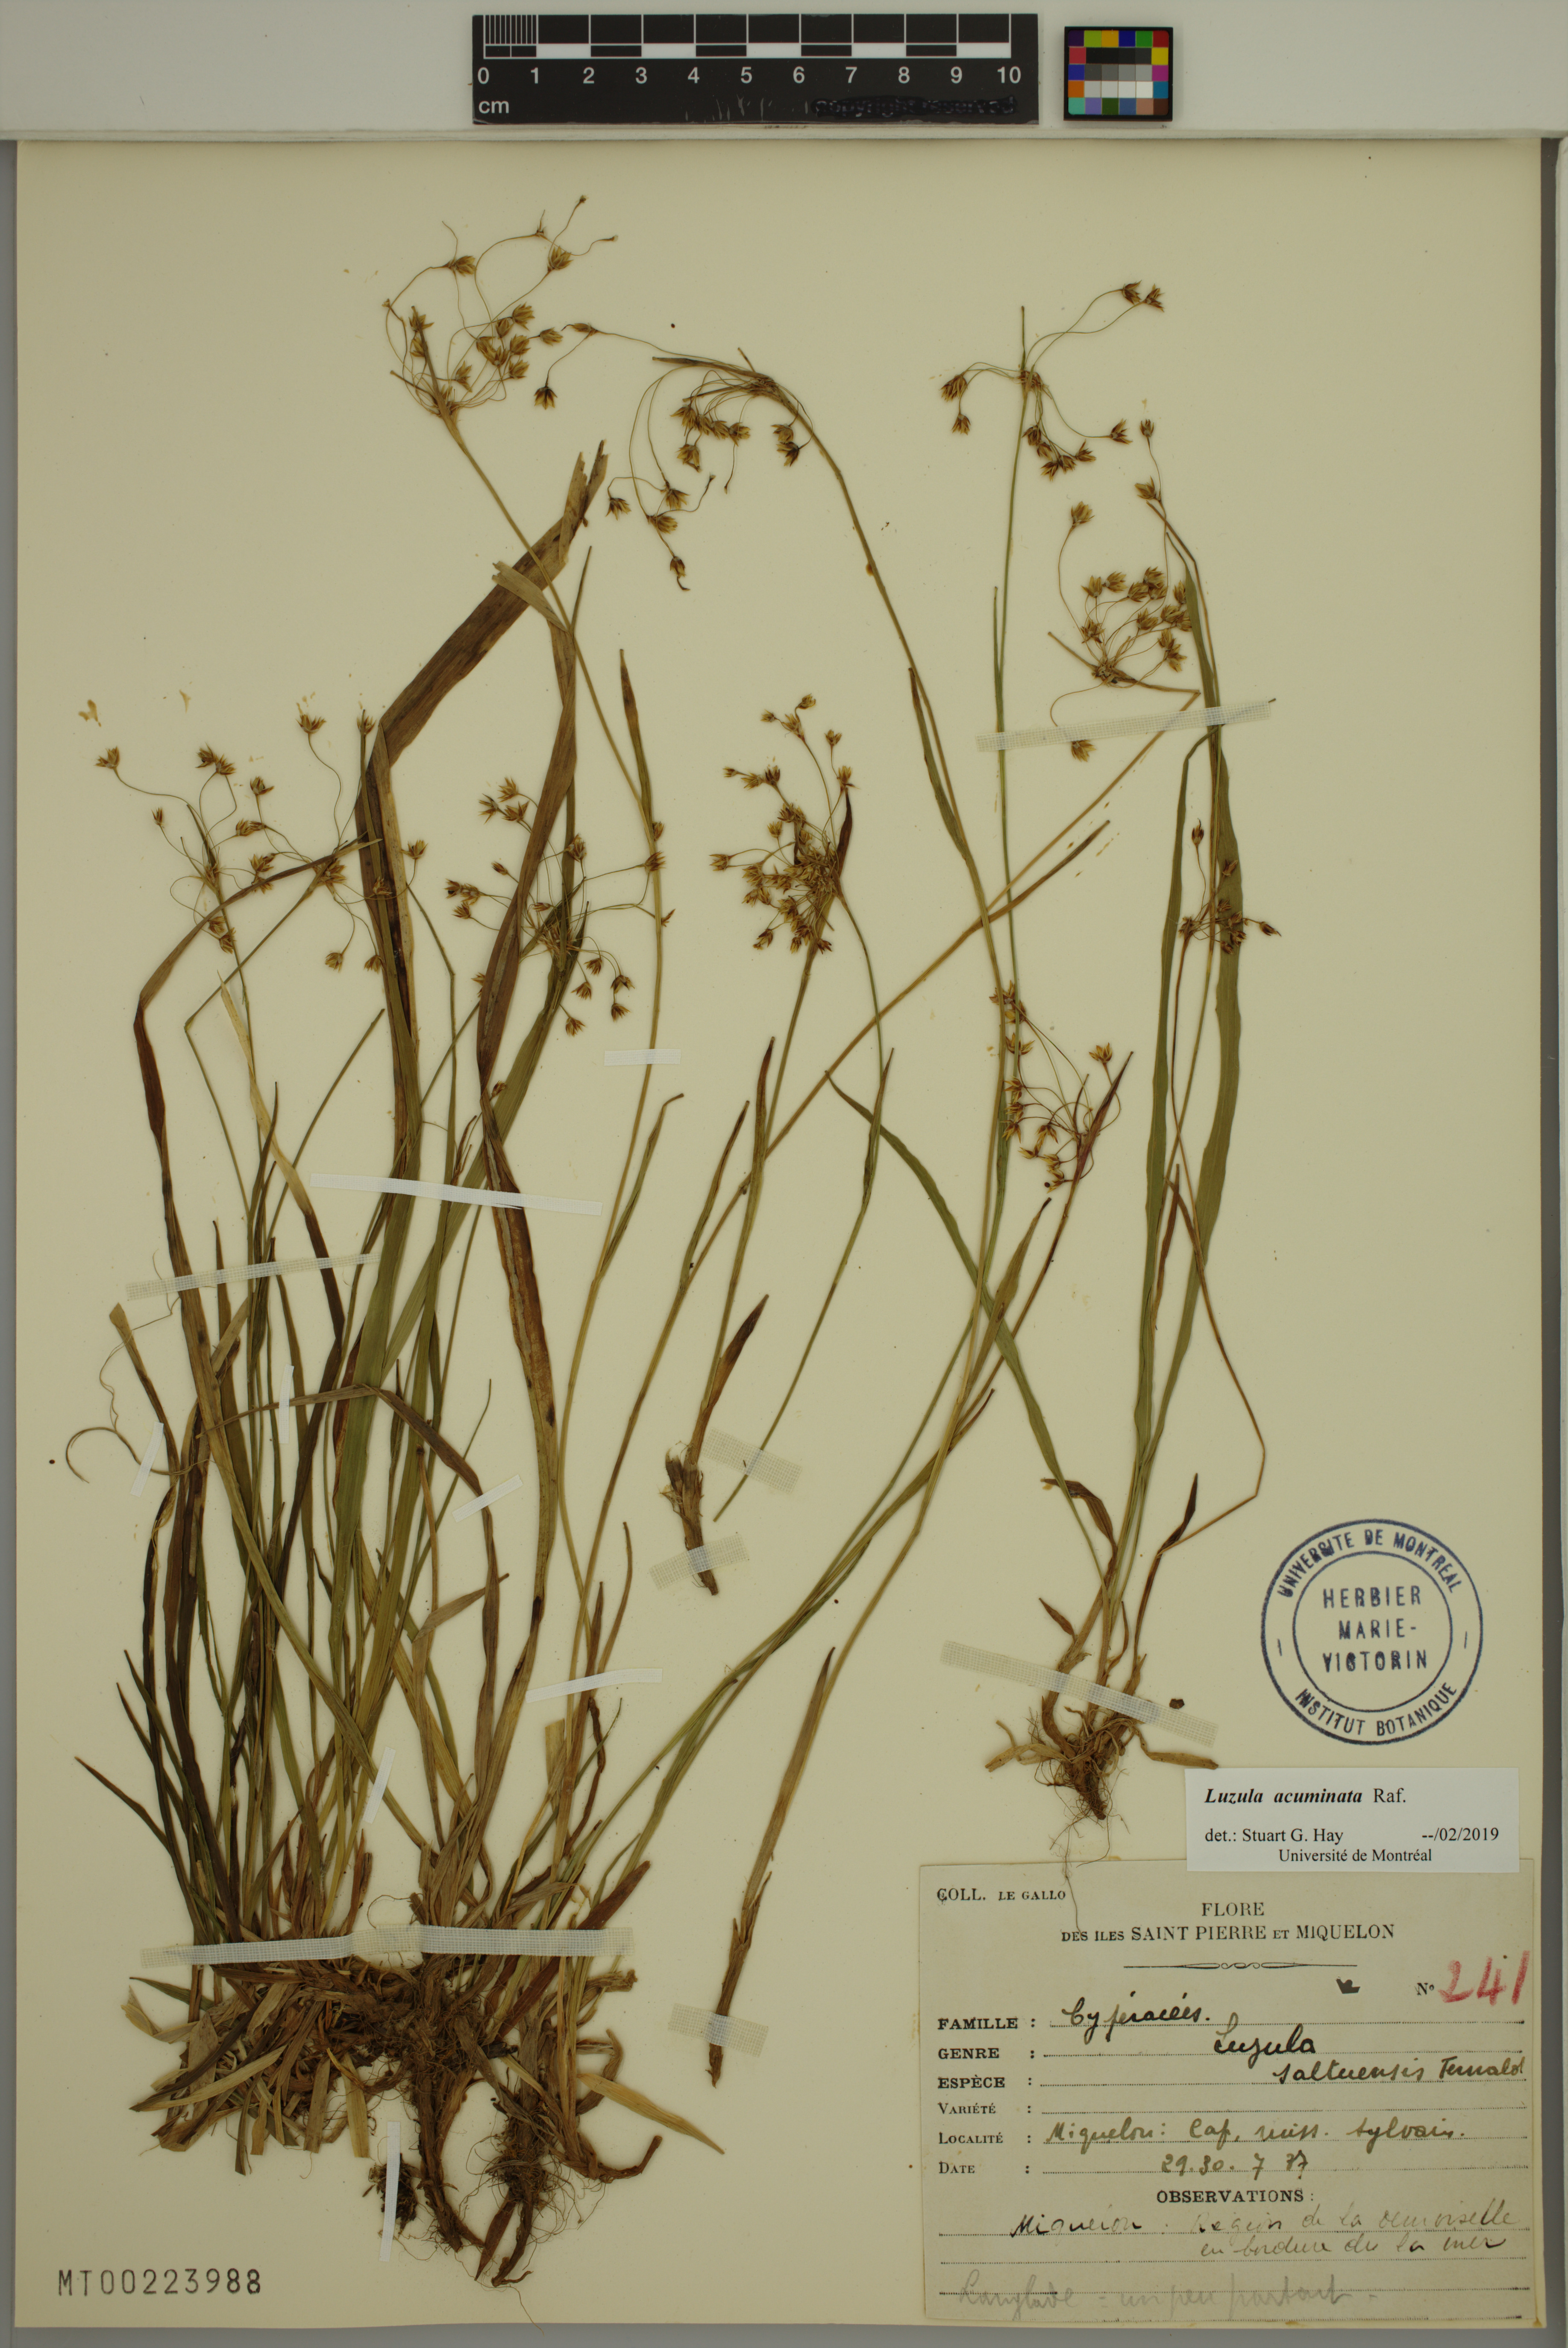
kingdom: Plantae
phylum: Tracheophyta
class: Liliopsida
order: Poales
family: Juncaceae
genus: Luzula
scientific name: Luzula acuminata
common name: Hairy woodrush
